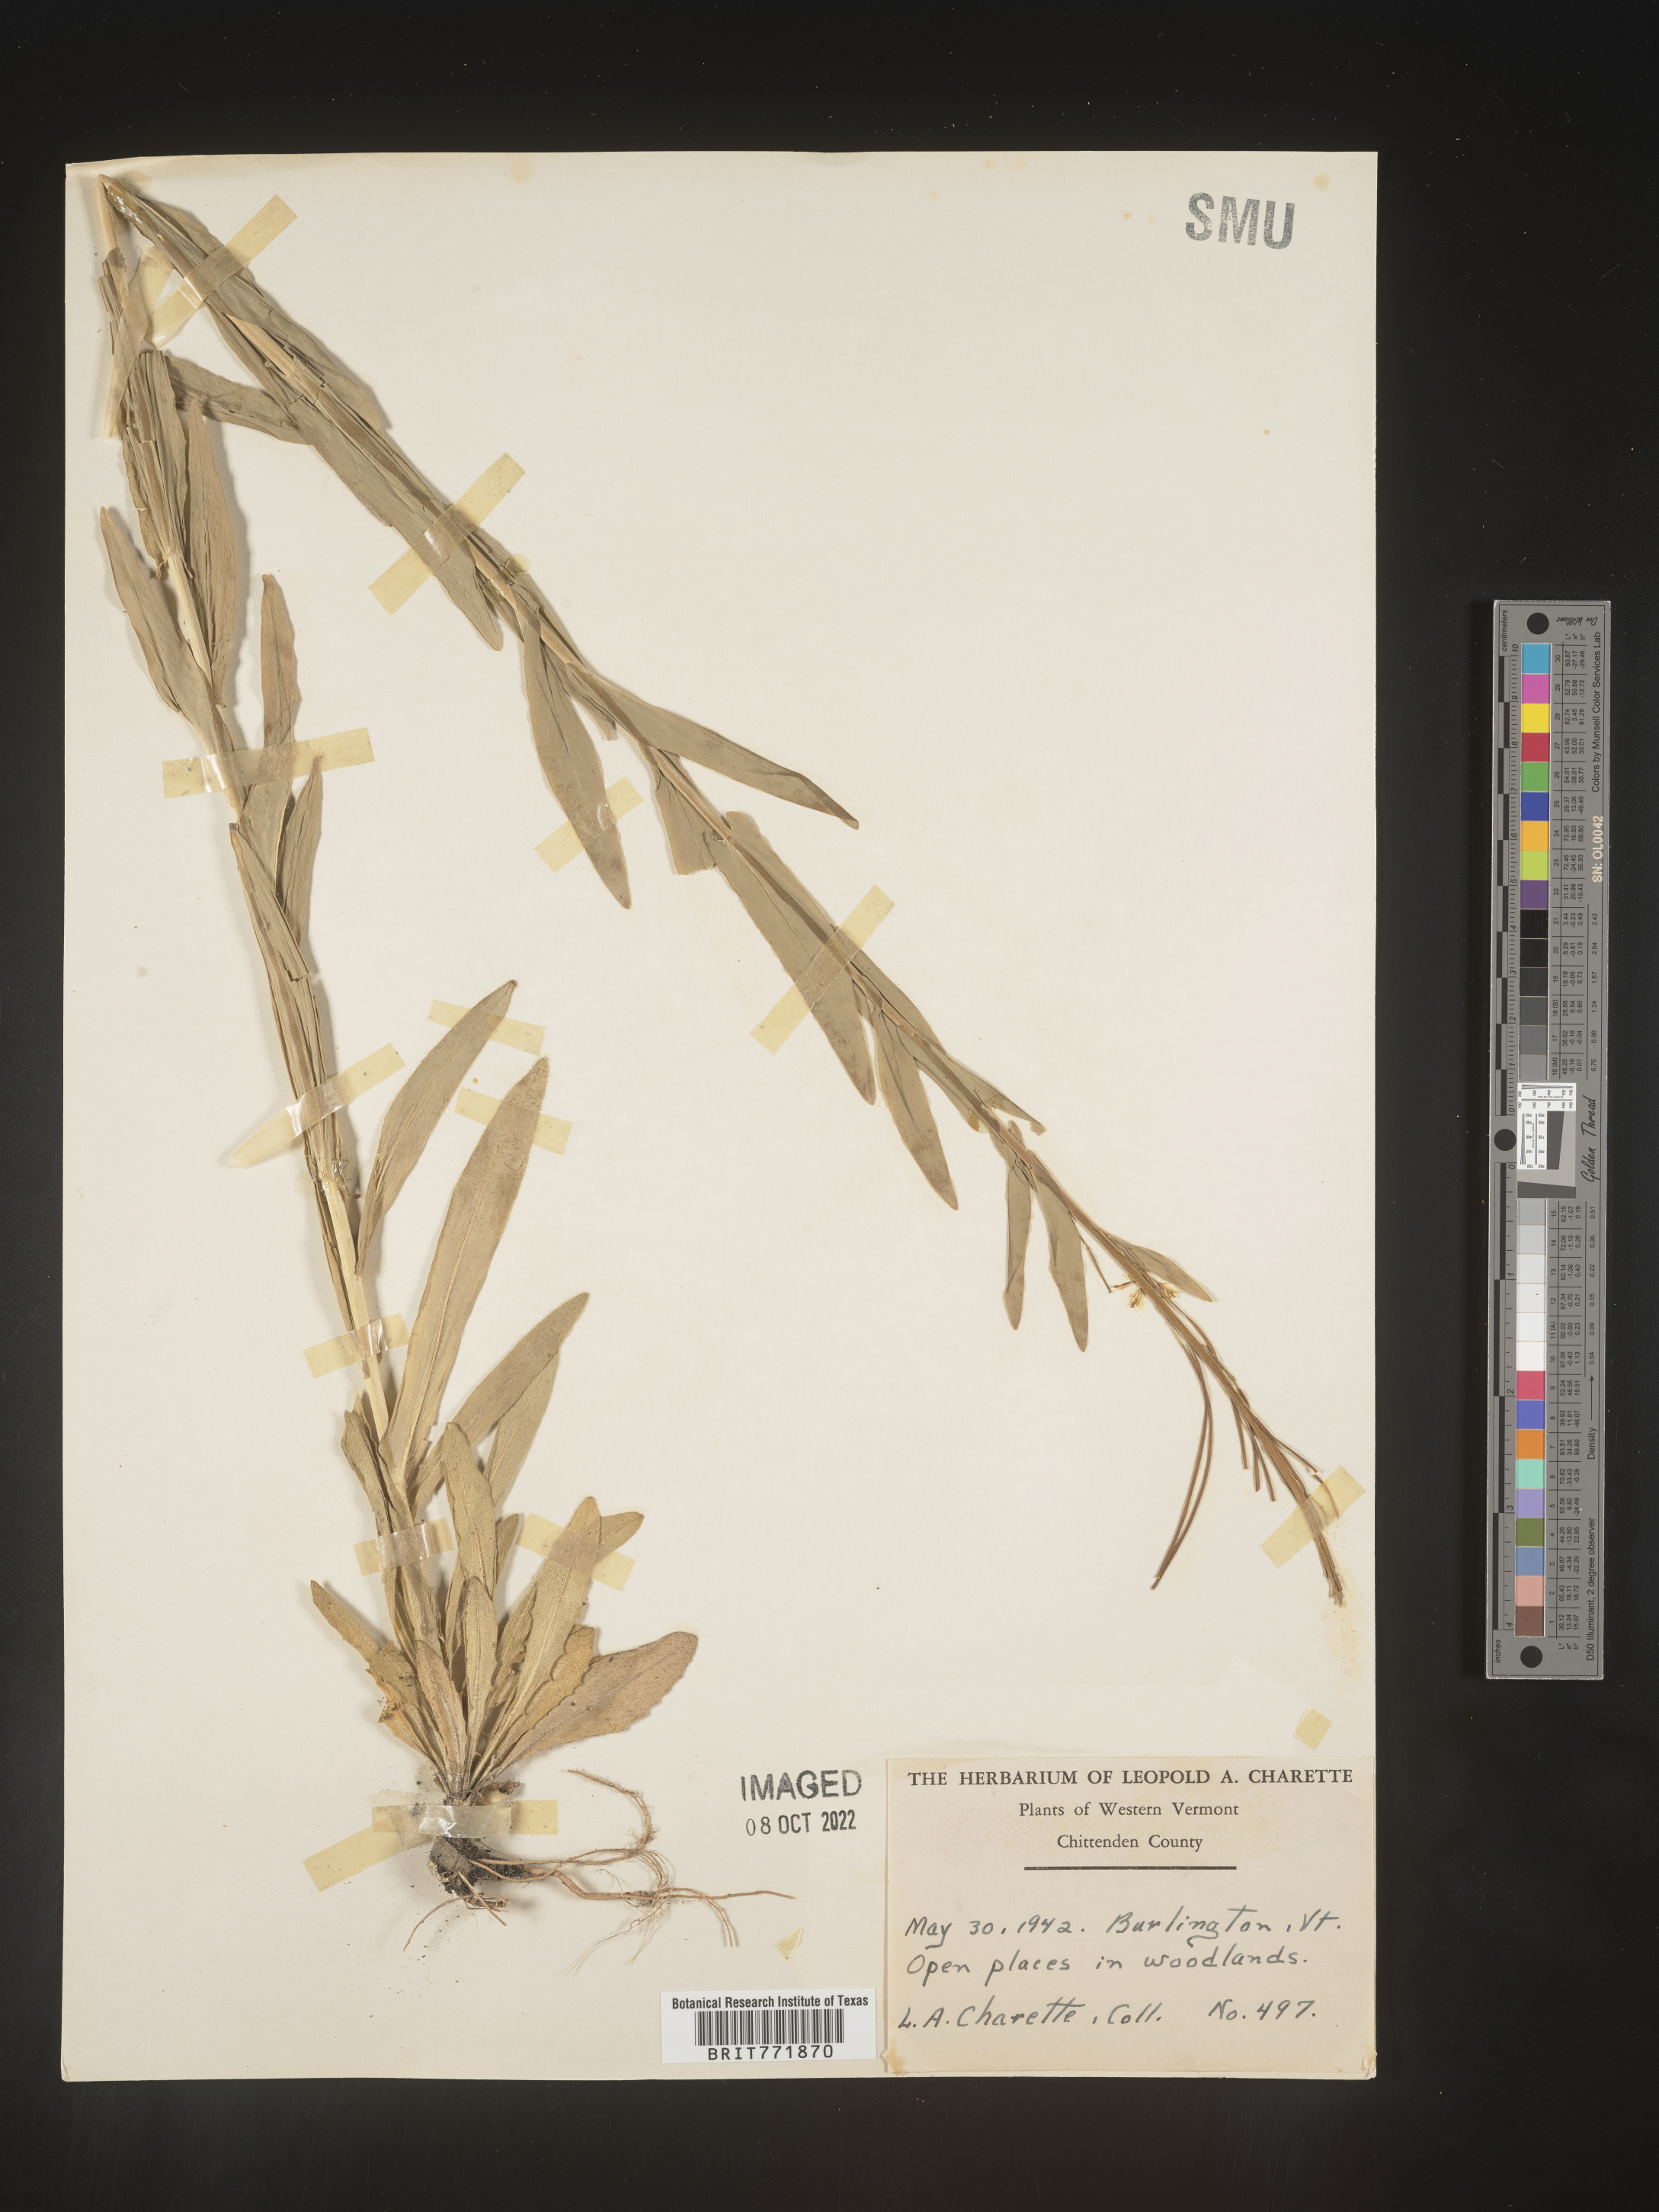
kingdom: Plantae
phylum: Tracheophyta
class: Magnoliopsida
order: Brassicales
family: Brassicaceae
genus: Arabis
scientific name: Arabis
